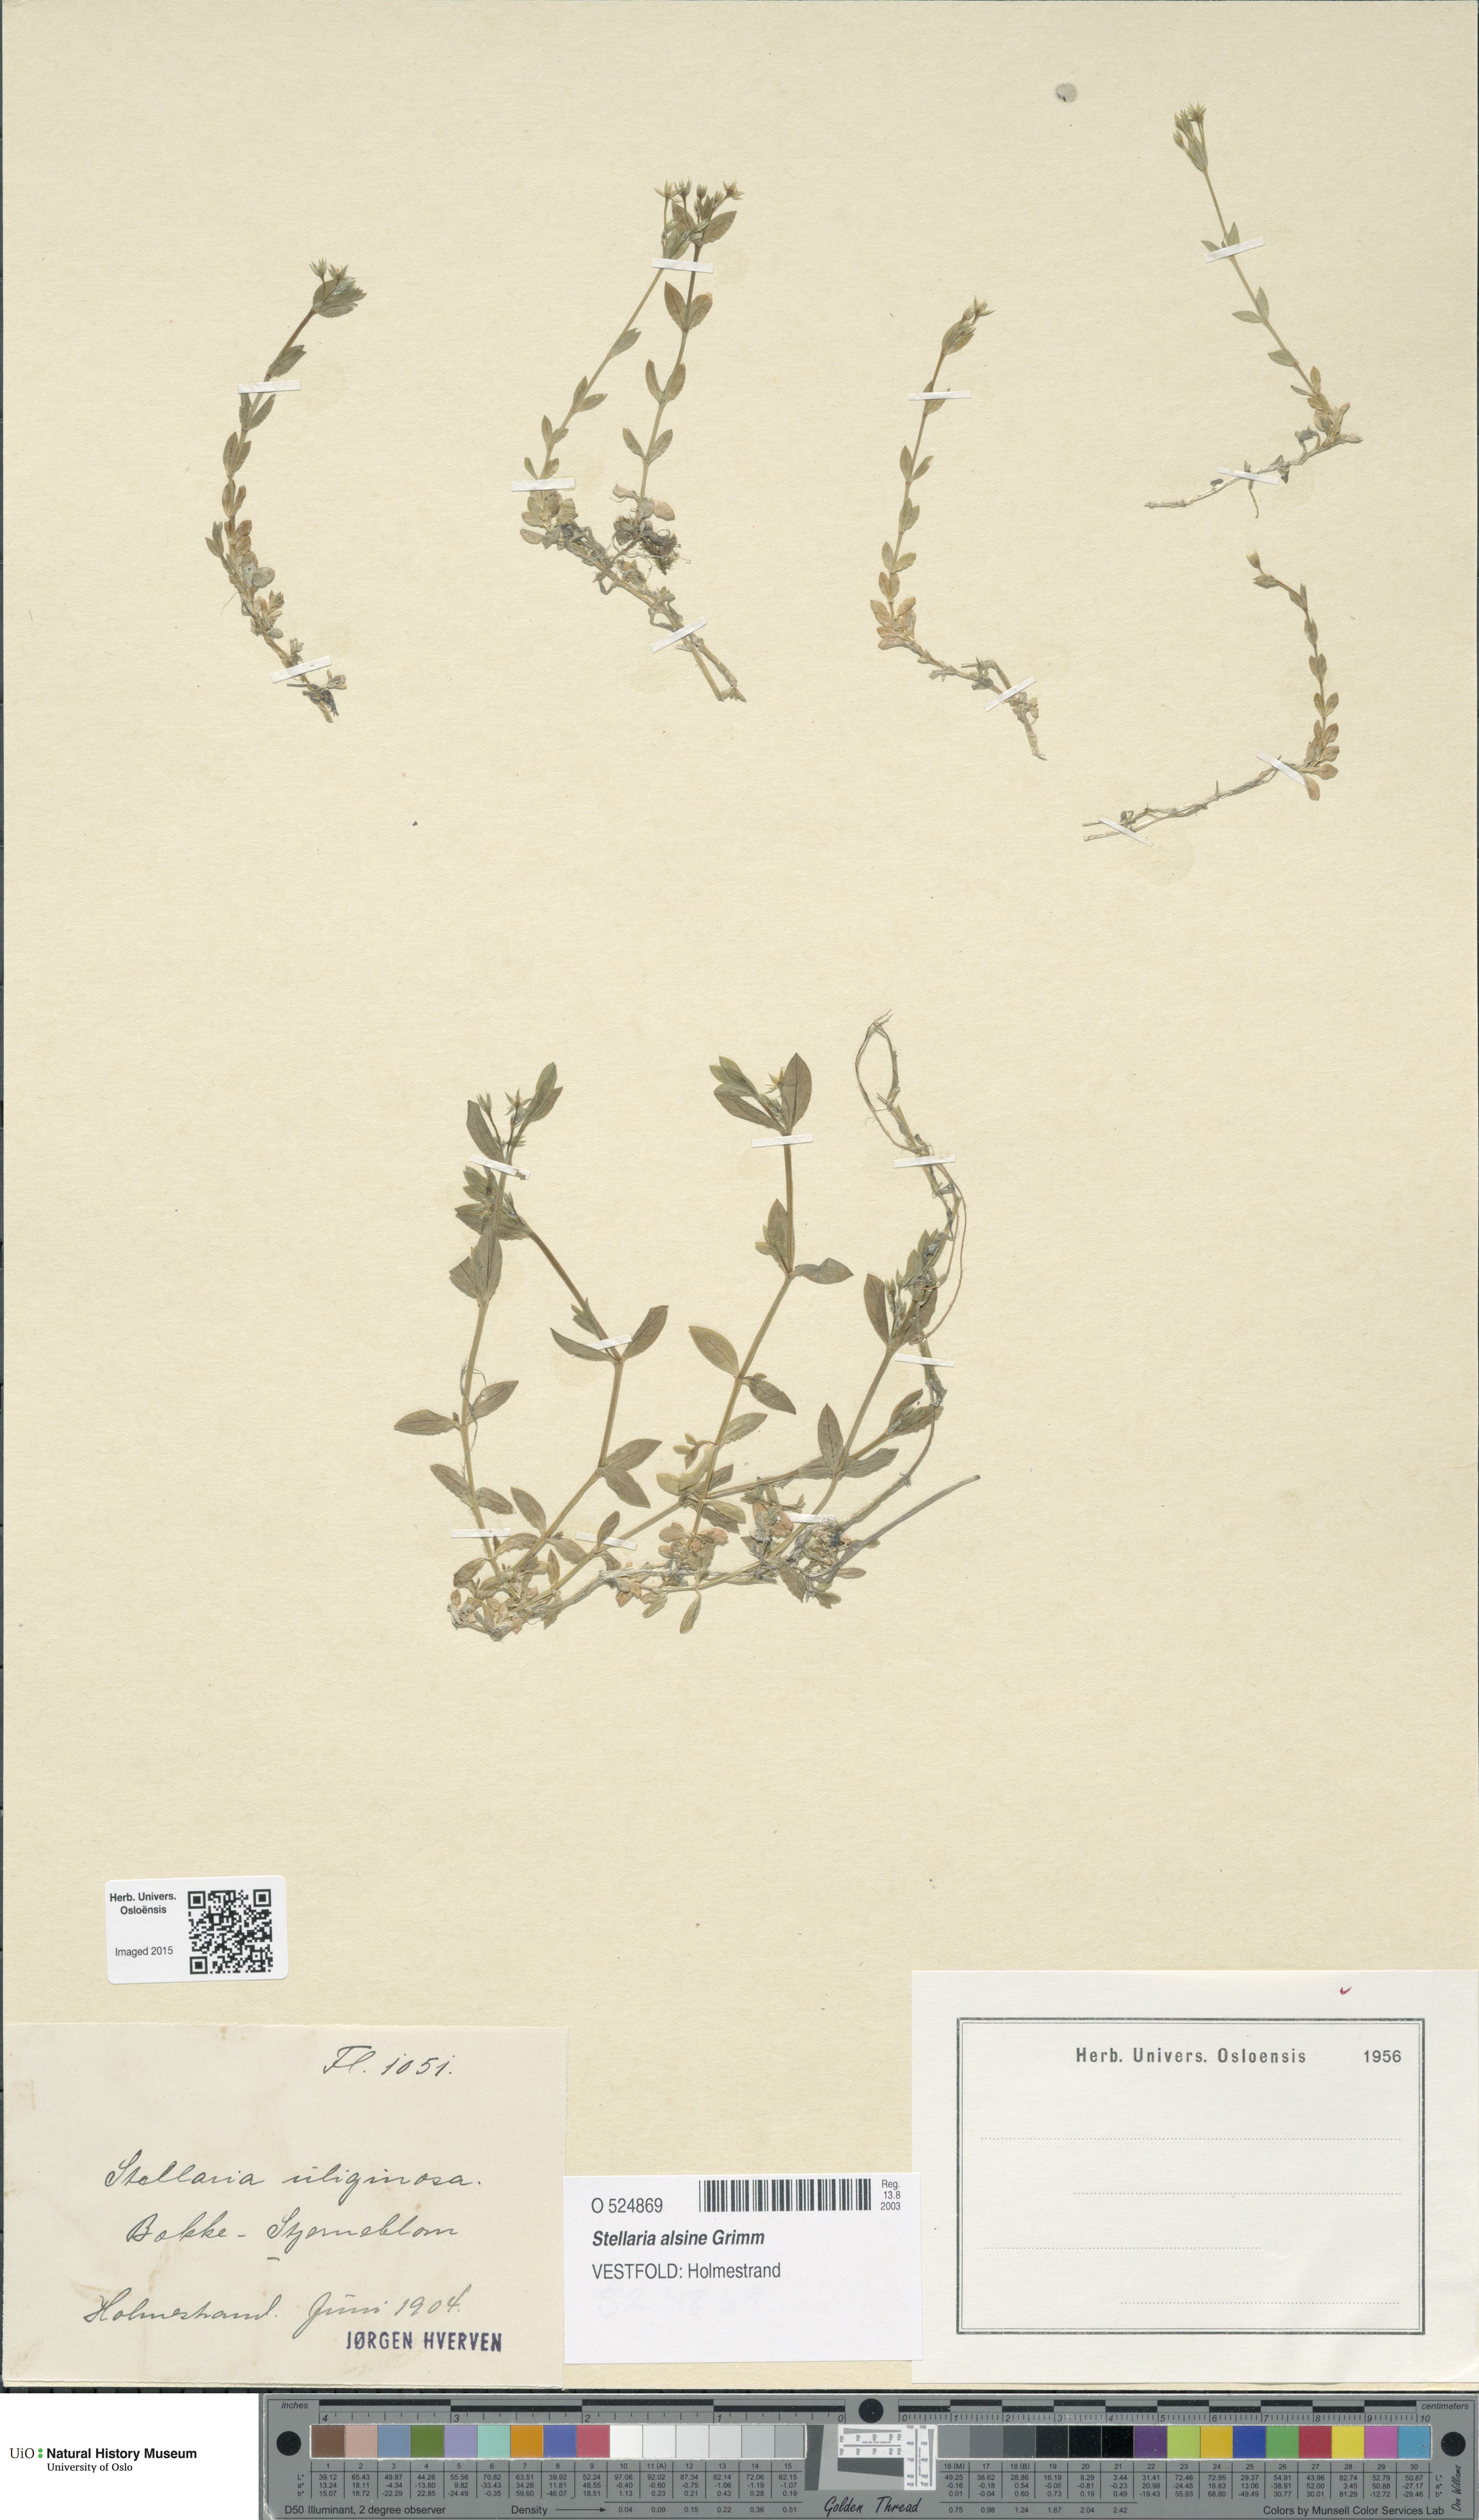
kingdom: Plantae
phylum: Tracheophyta
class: Magnoliopsida
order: Caryophyllales
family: Caryophyllaceae
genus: Stellaria
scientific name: Stellaria alsine
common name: Bog stitchwort
